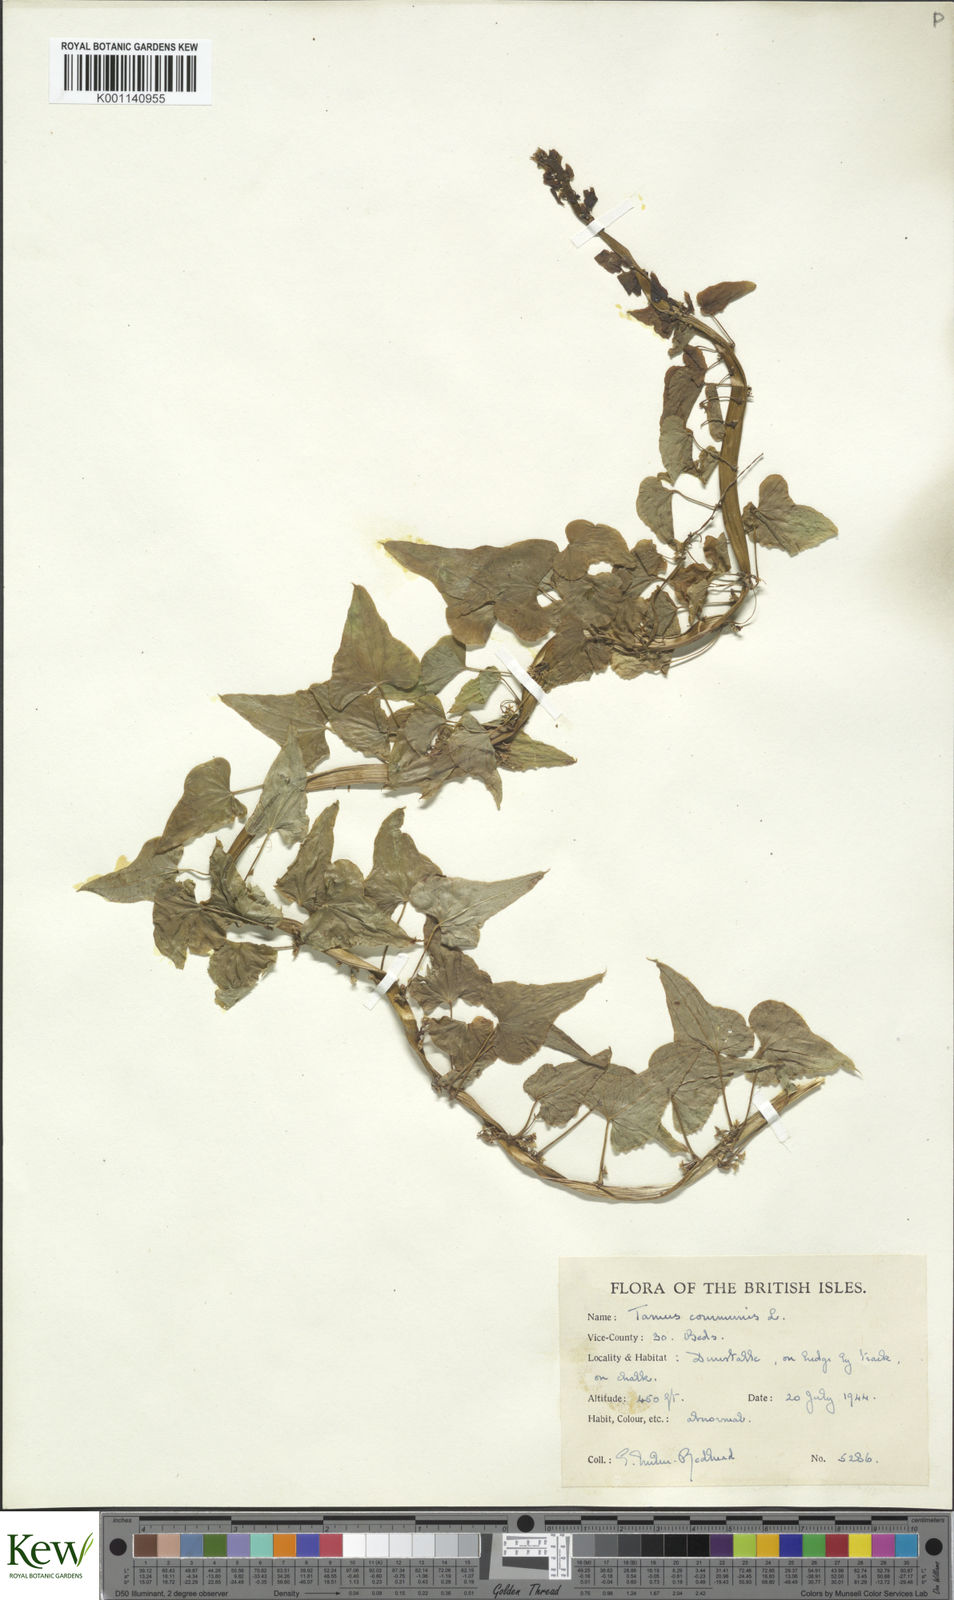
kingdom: Plantae
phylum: Tracheophyta
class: Liliopsida
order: Dioscoreales
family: Dioscoreaceae
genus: Dioscorea
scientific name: Dioscorea communis
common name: Black-bindweed
